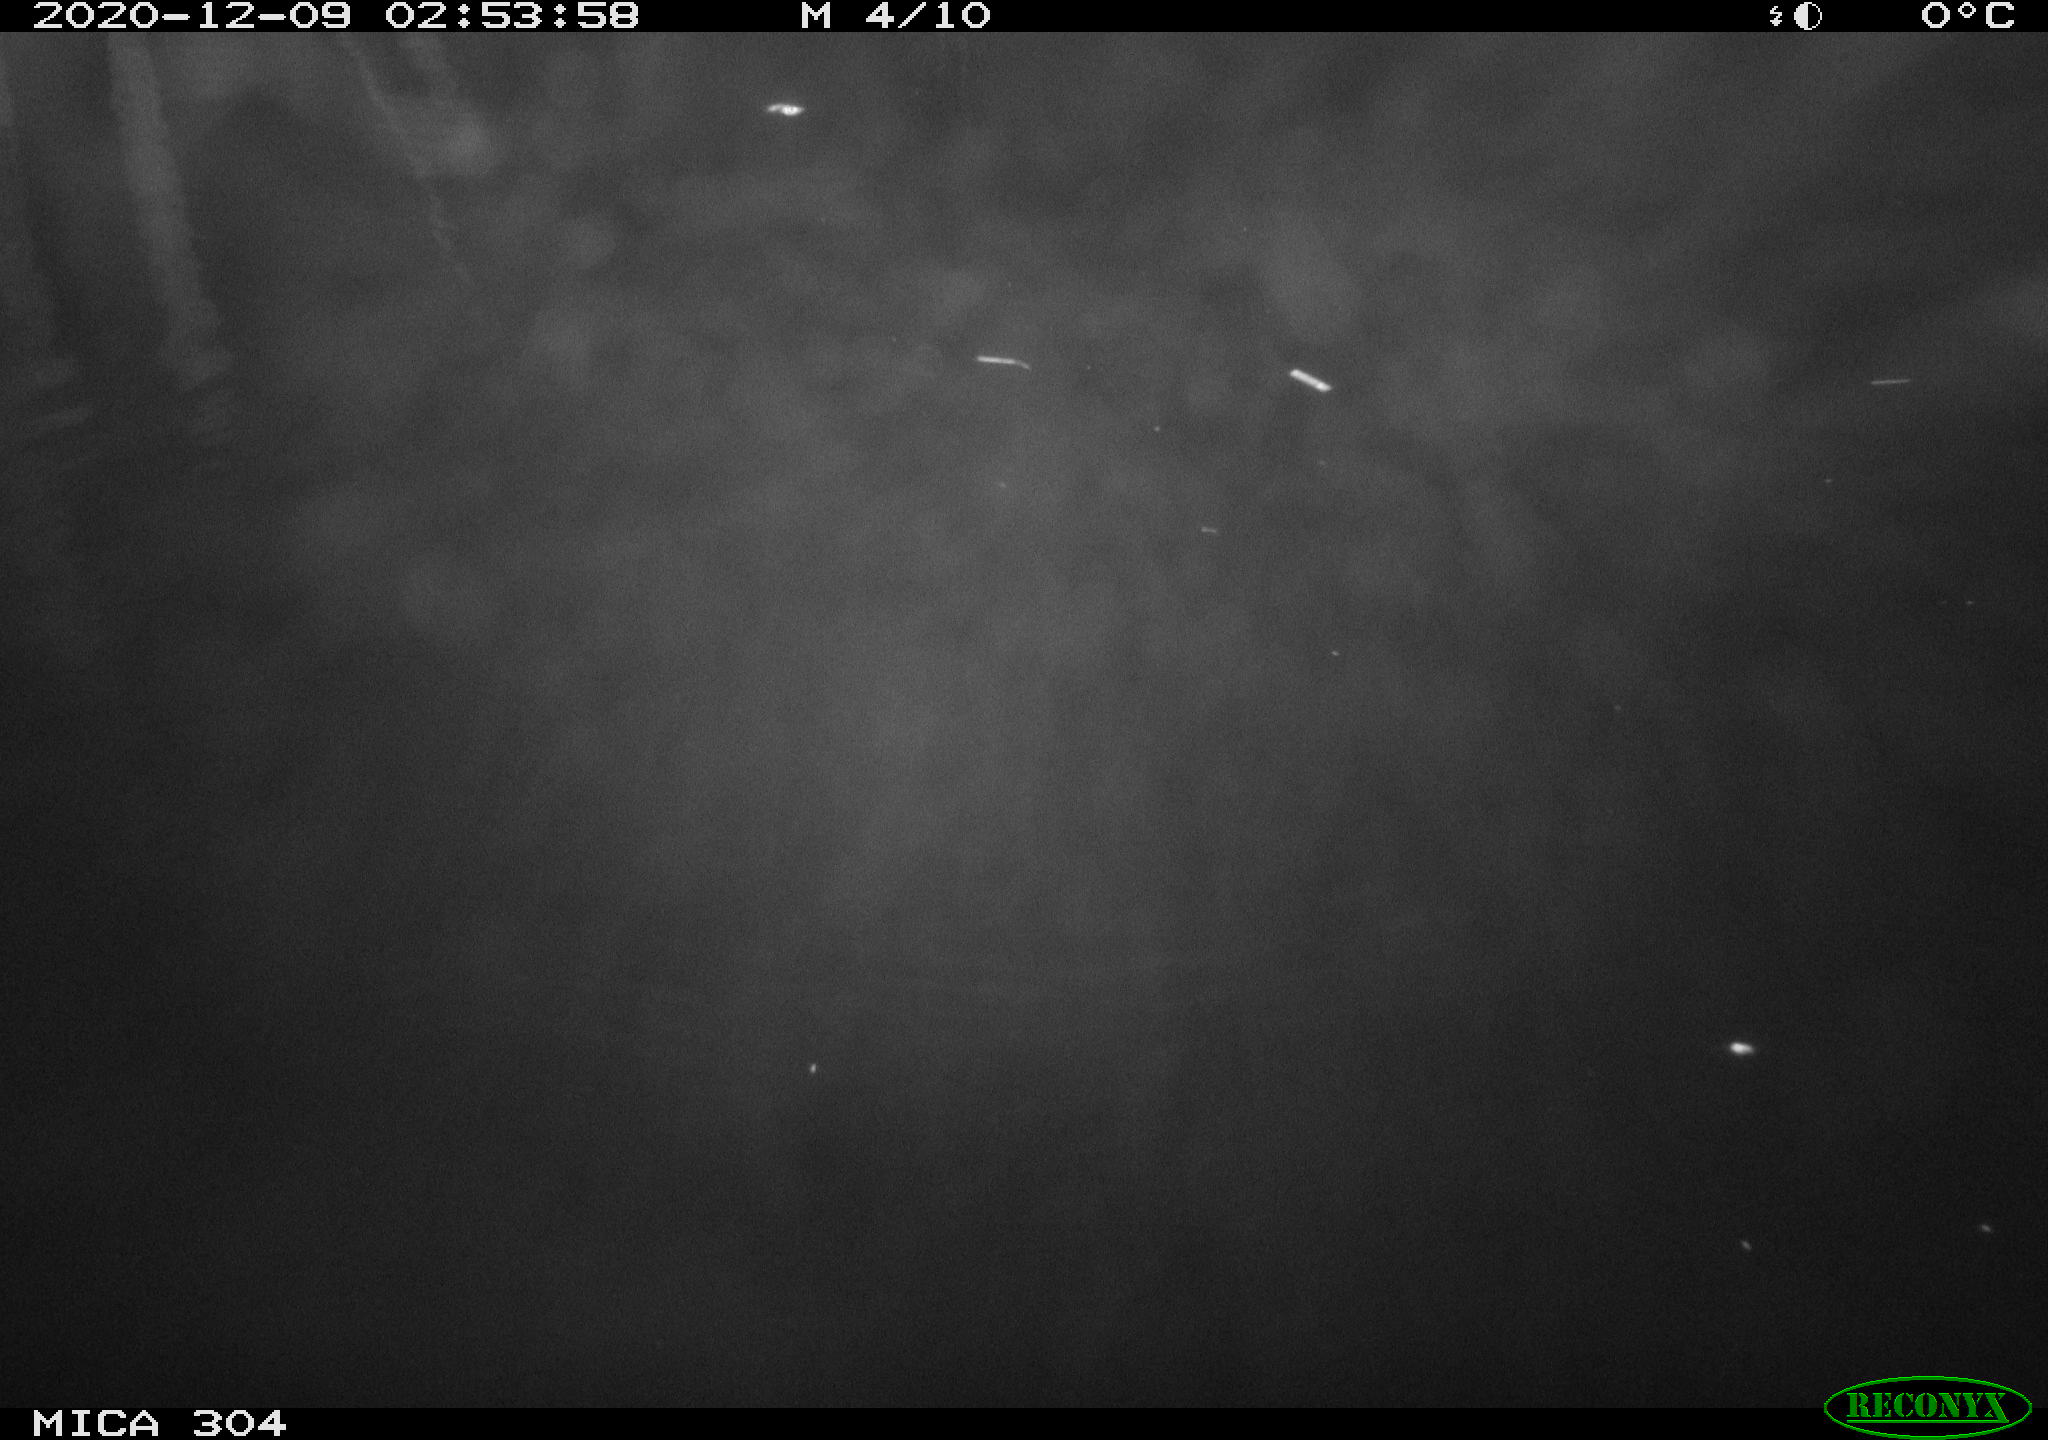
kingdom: Animalia
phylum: Chordata
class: Mammalia
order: Rodentia
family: Muridae
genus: Rattus
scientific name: Rattus norvegicus
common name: Brown rat
